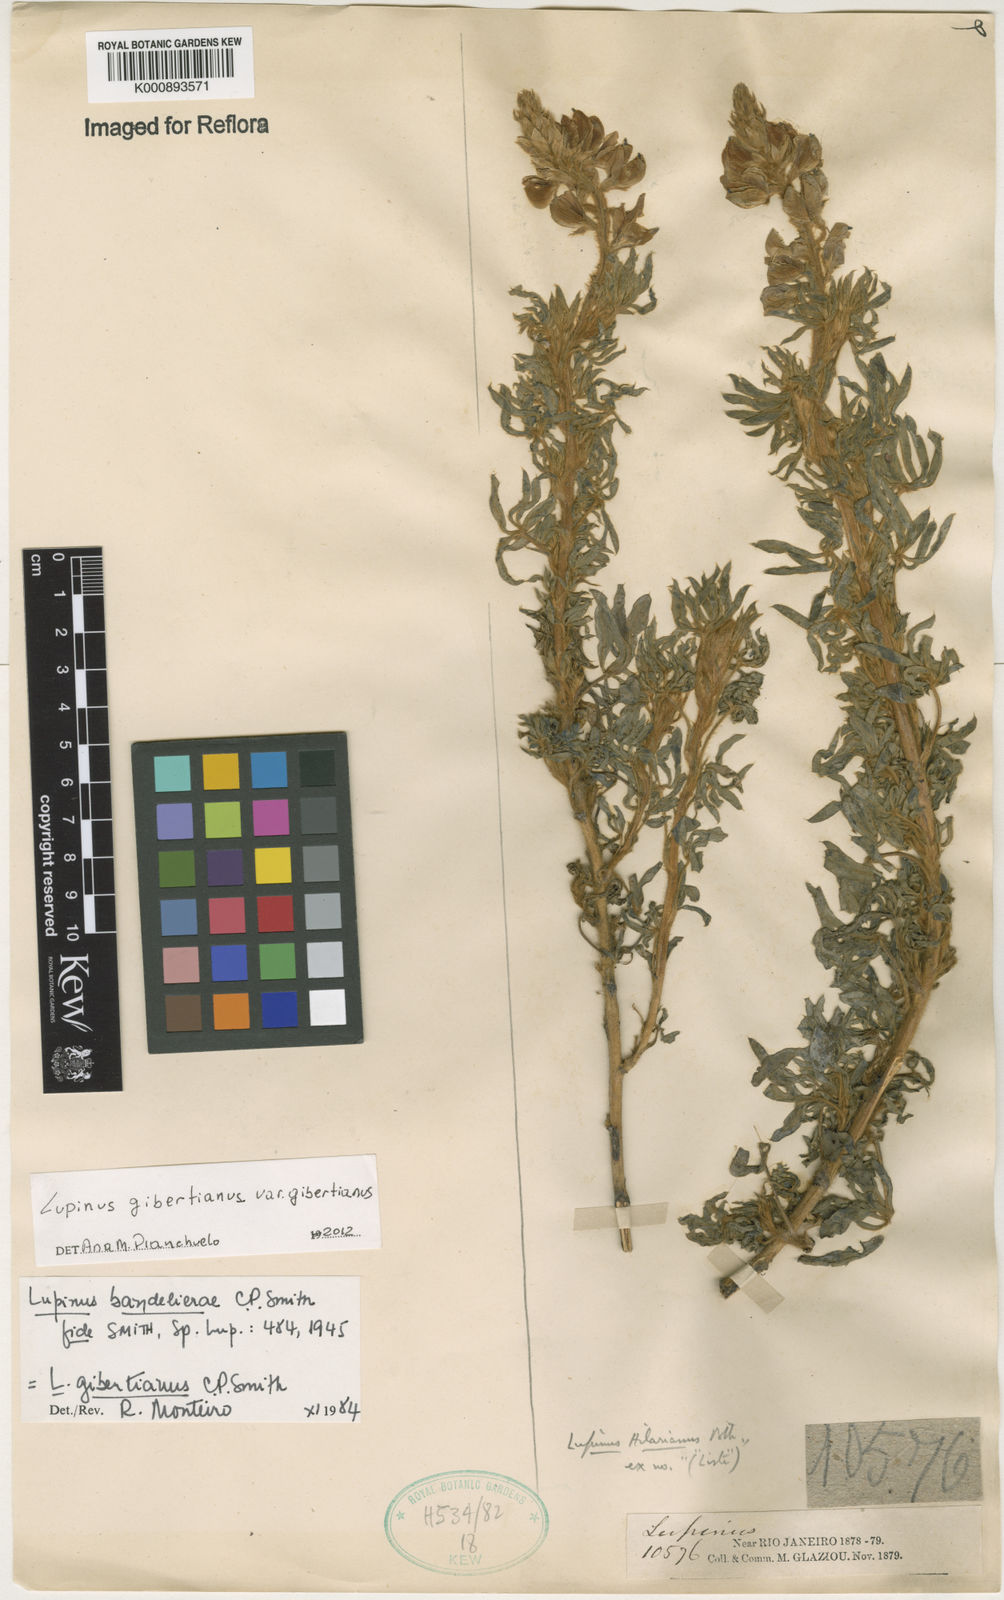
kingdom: Plantae
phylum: Tracheophyta
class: Magnoliopsida
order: Fabales
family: Fabaceae
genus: Lupinus
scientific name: Lupinus gibertianus
